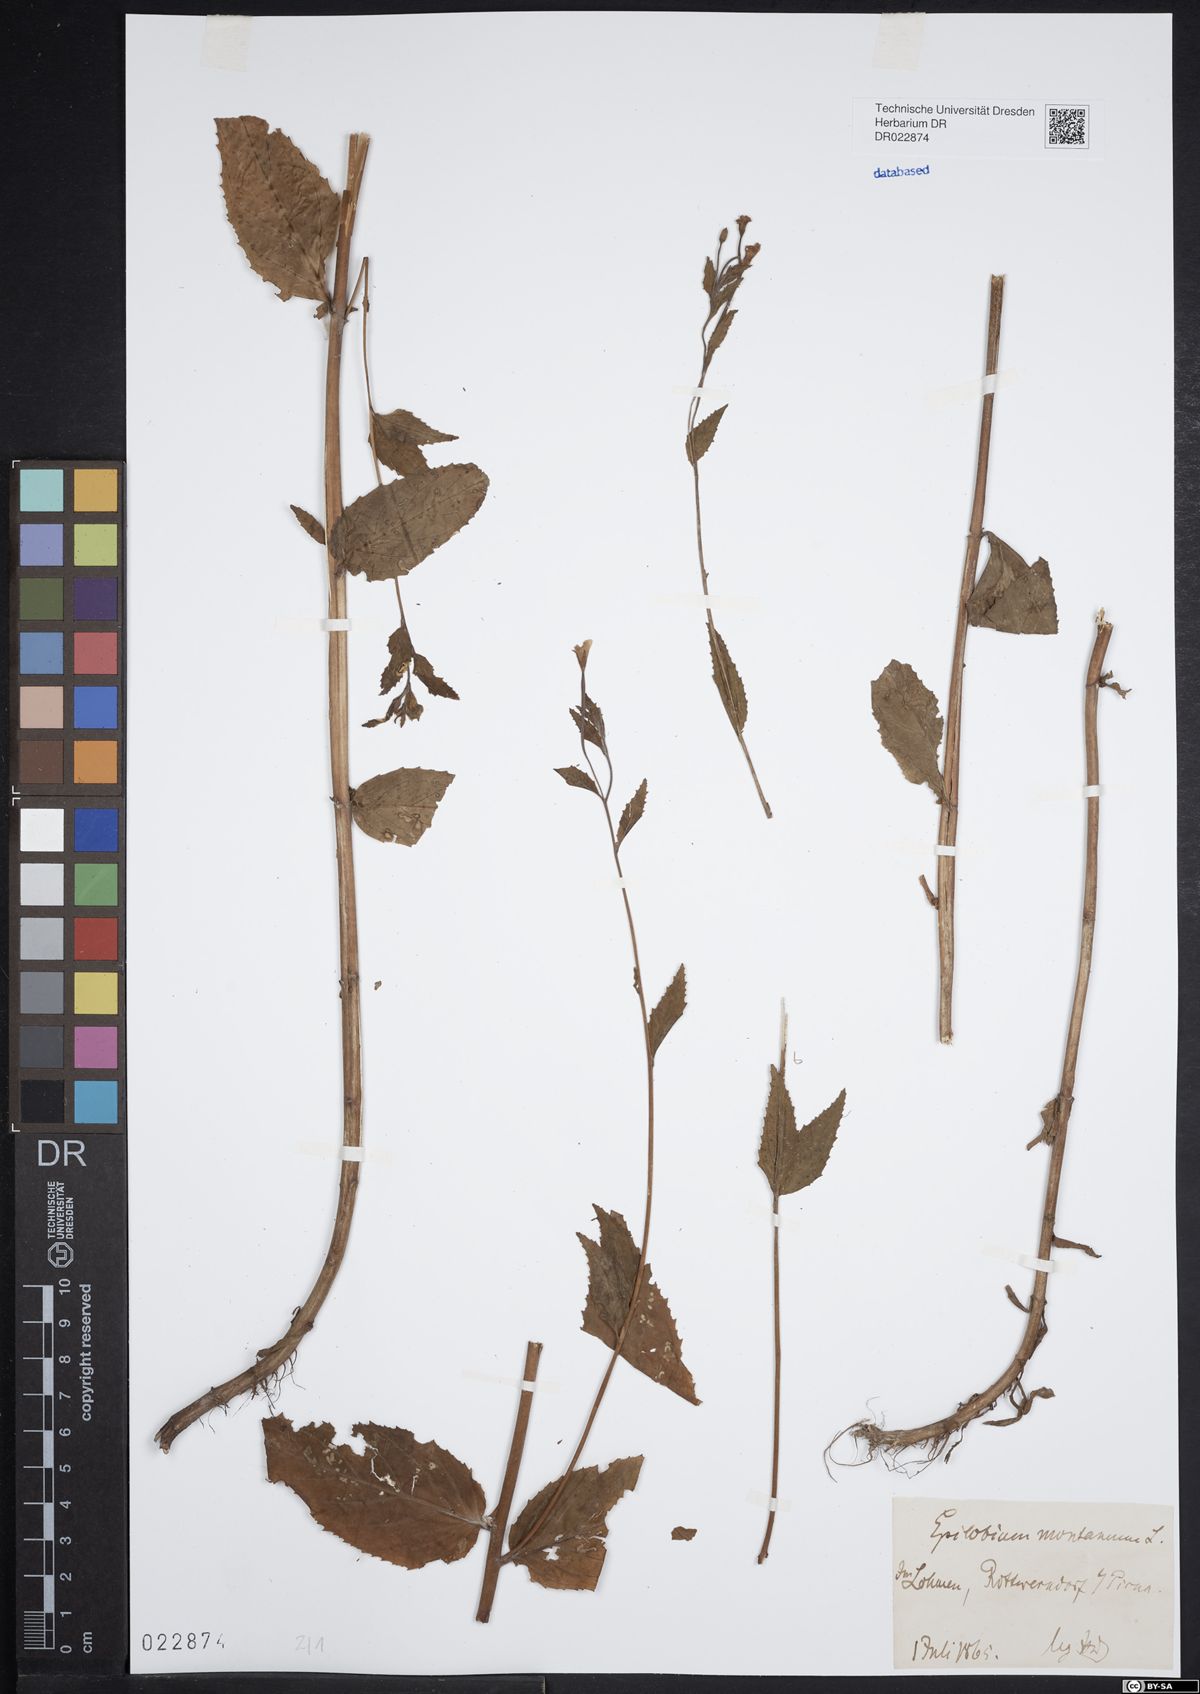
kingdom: Plantae
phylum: Tracheophyta
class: Magnoliopsida
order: Myrtales
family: Onagraceae
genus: Epilobium
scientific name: Epilobium montanum
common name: Broad-leaved willowherb
